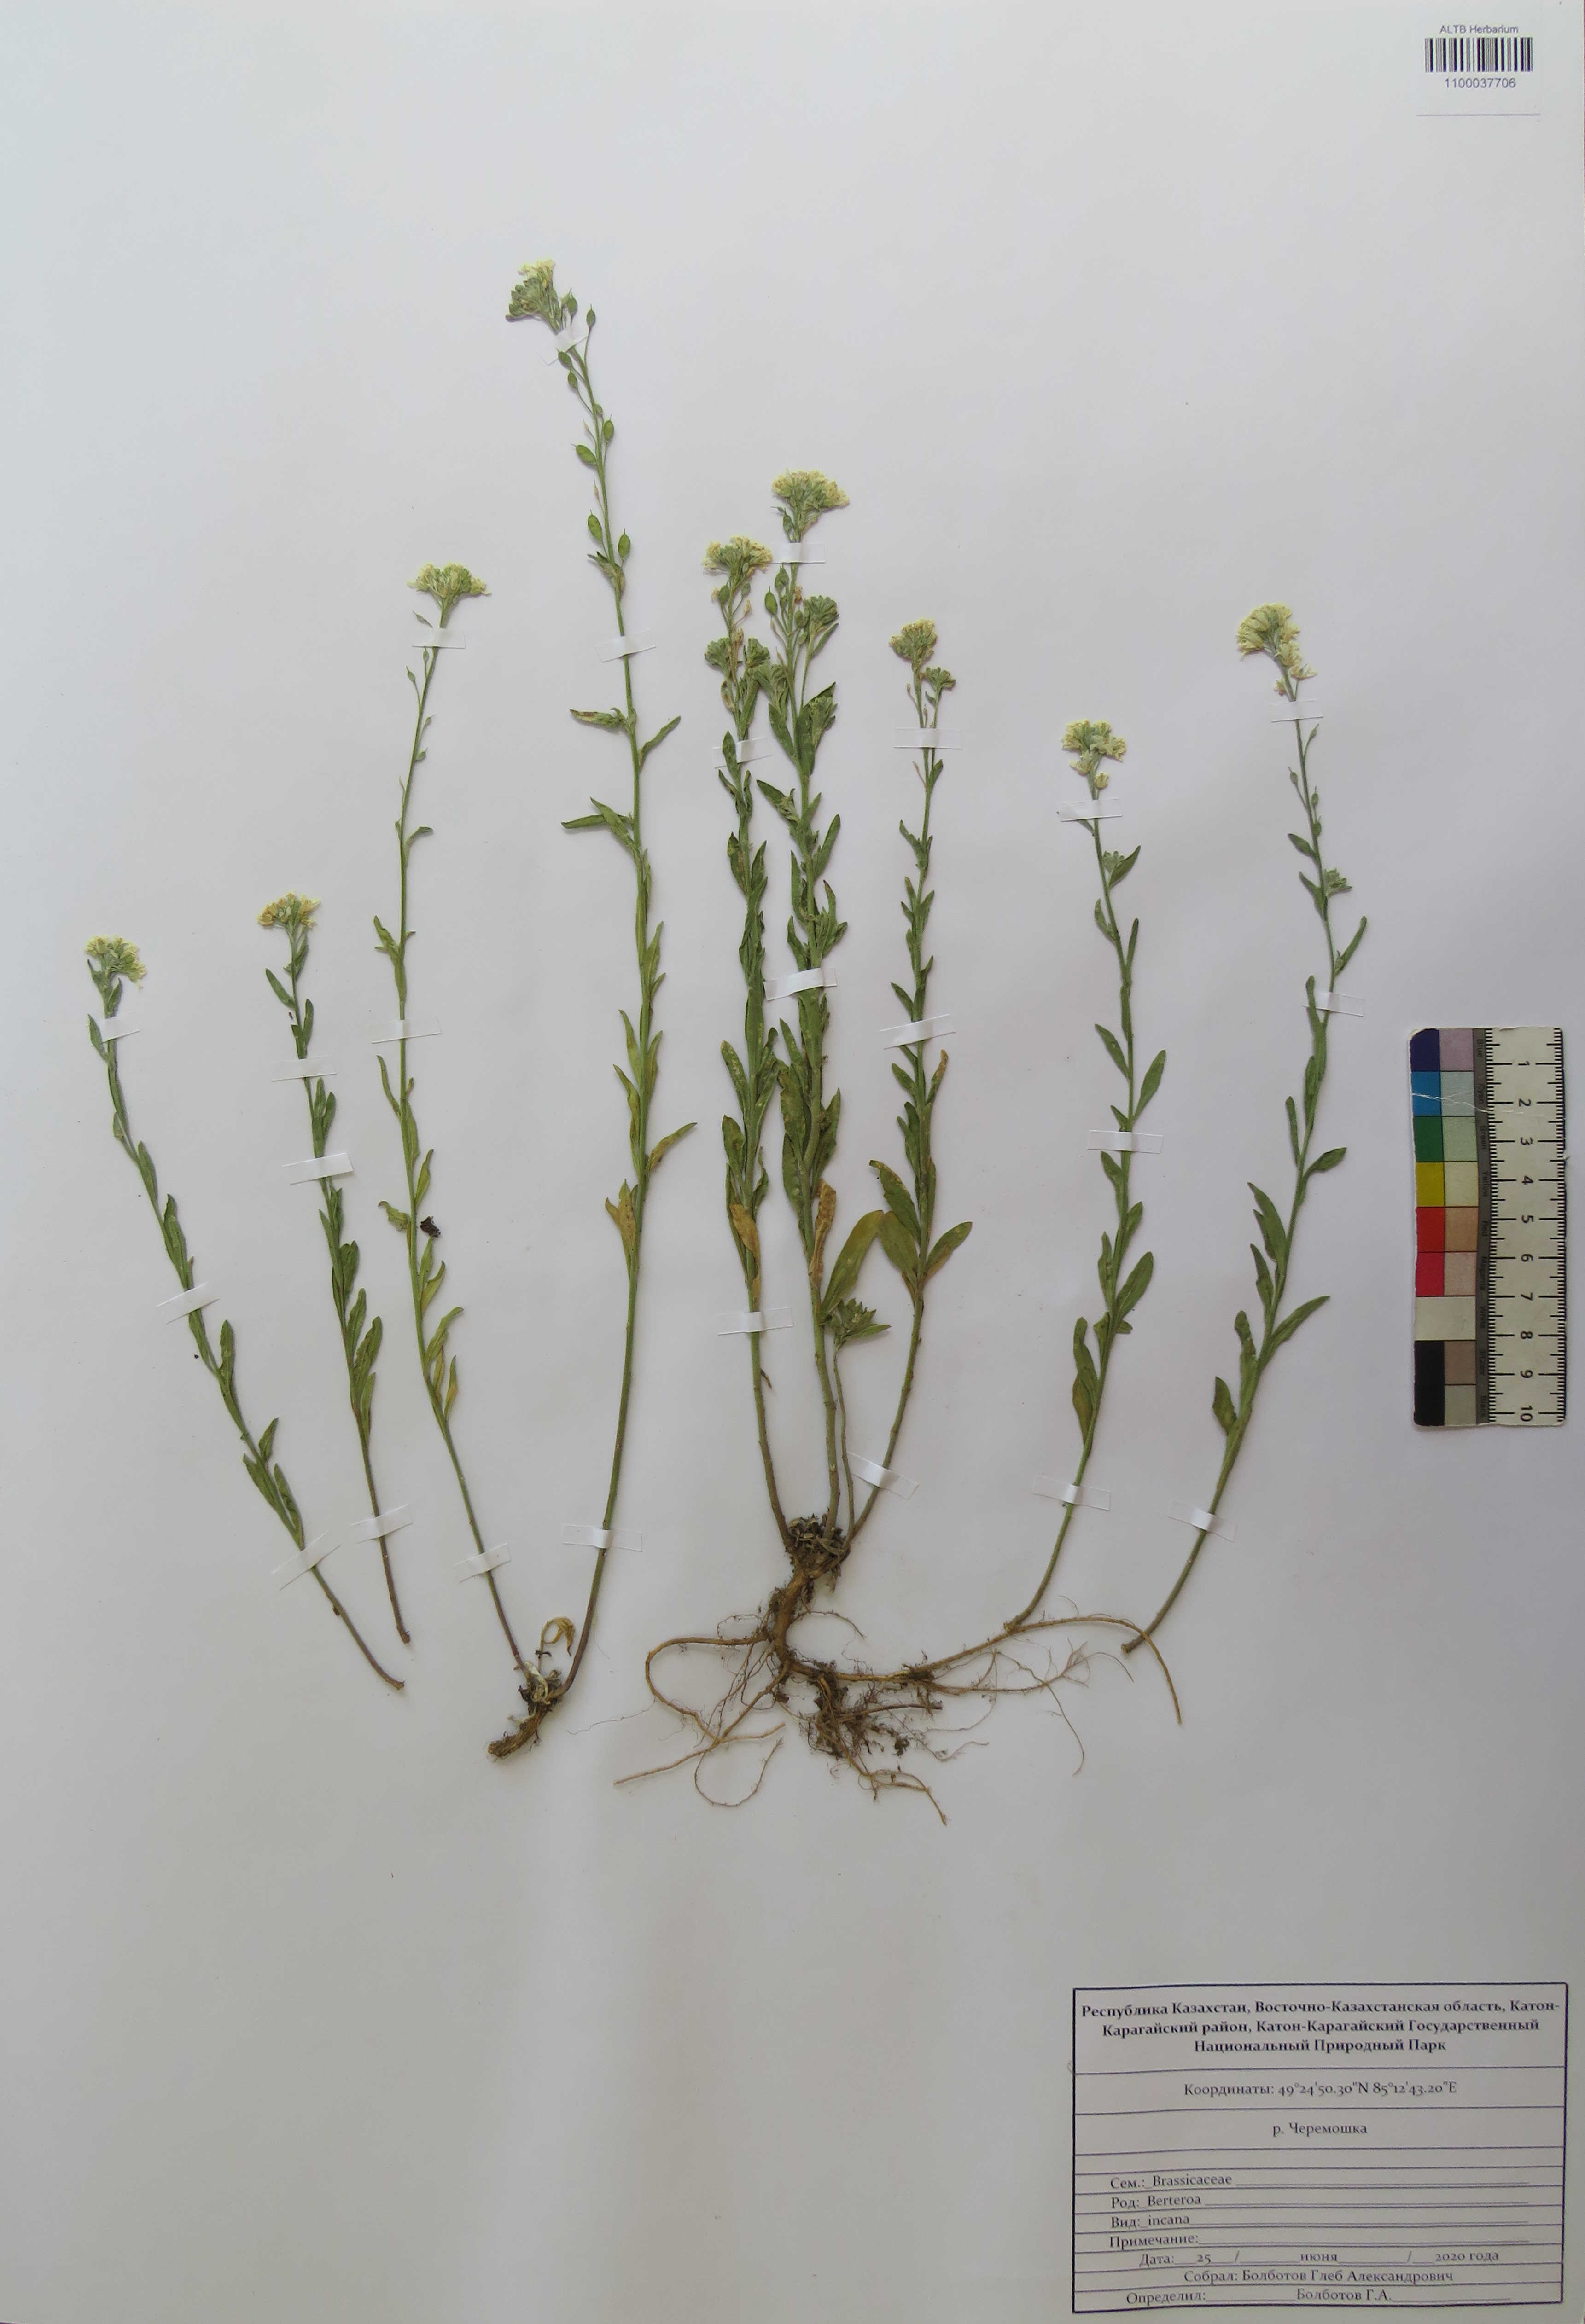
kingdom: Plantae
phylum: Tracheophyta
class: Magnoliopsida
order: Brassicales
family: Brassicaceae
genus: Berteroa
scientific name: Berteroa incana
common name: Hoary alison
